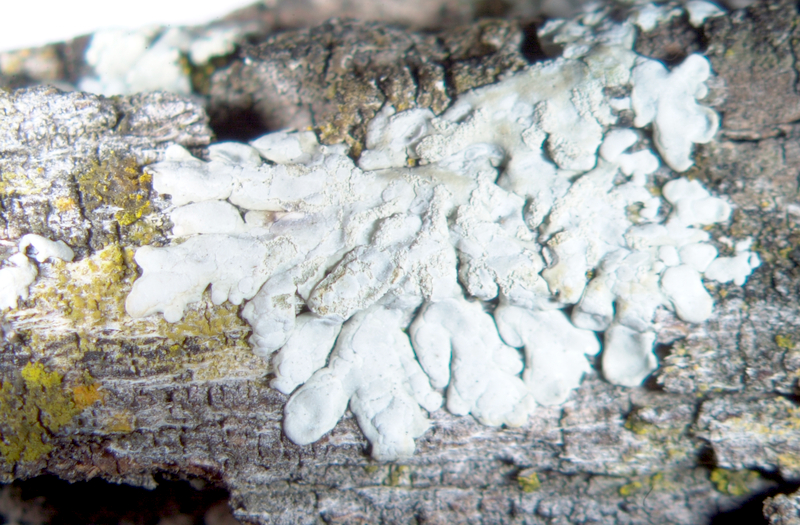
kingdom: Fungi
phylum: Ascomycota
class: Lecanoromycetes
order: Teloschistales
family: Teloschistaceae
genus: Athallia
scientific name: Athallia alnetorum
